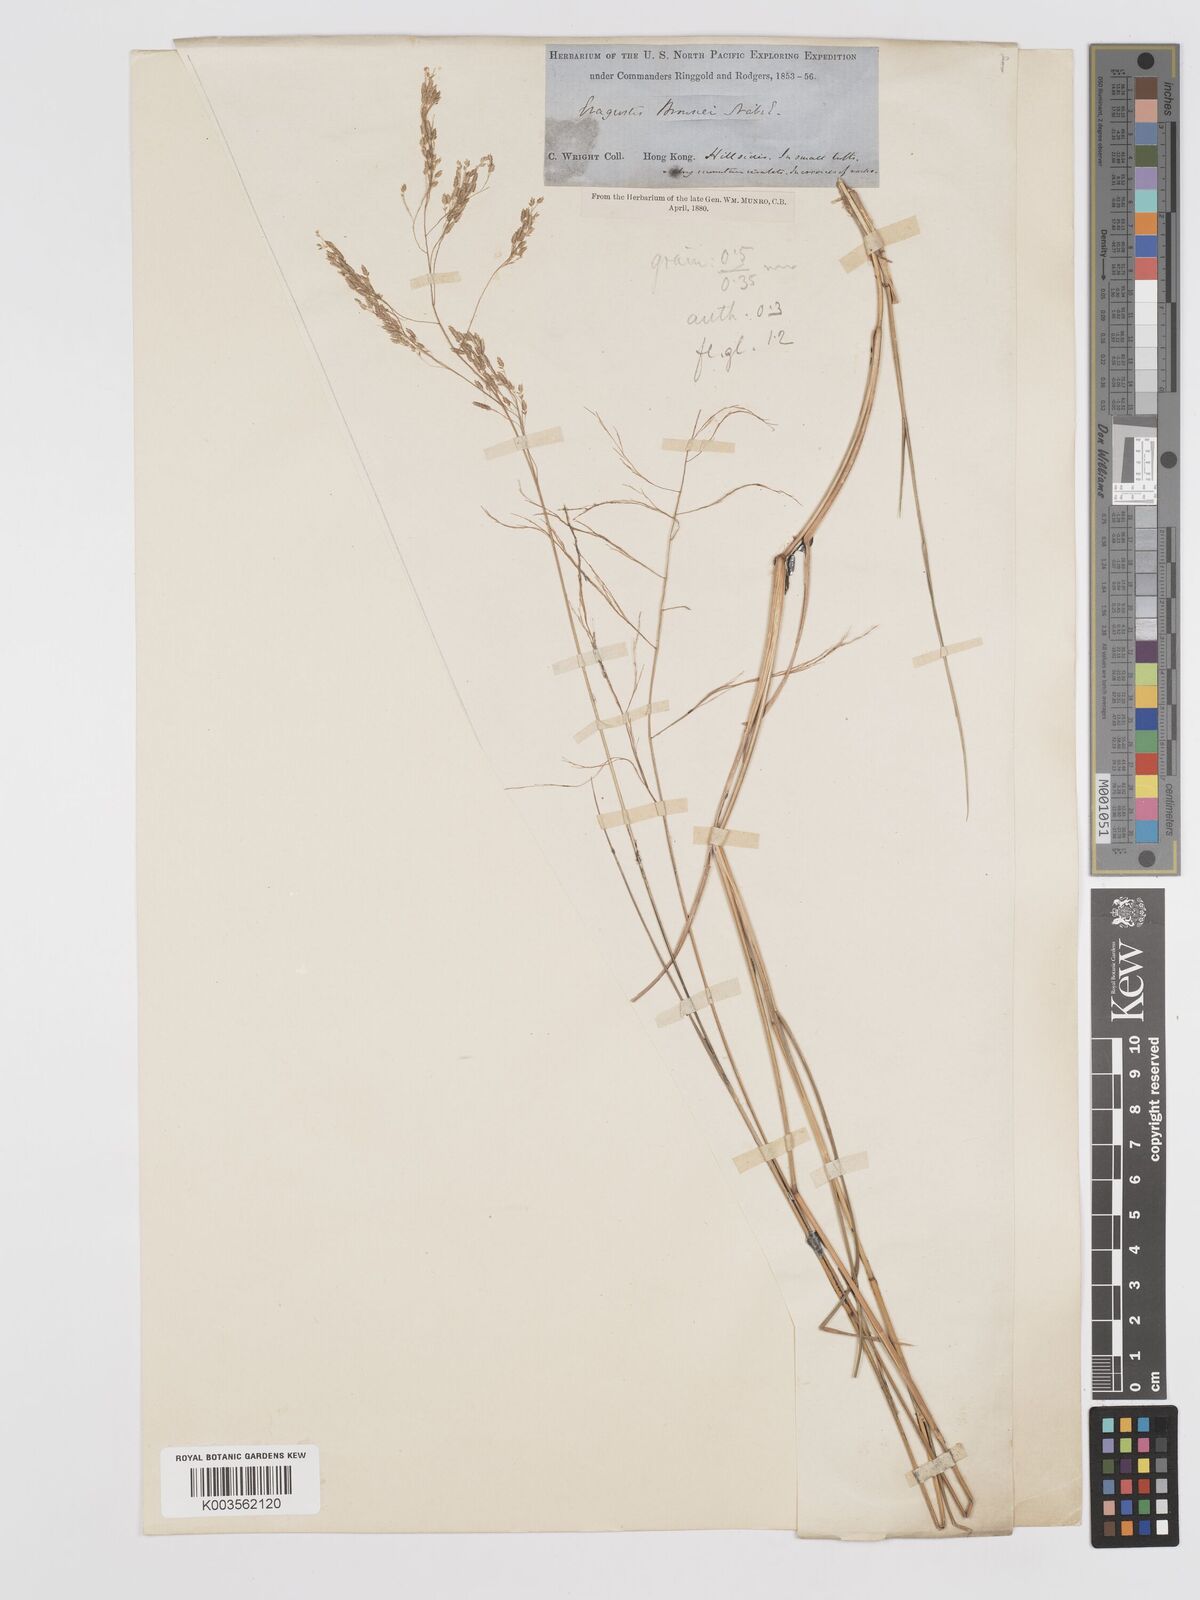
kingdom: Plantae
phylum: Tracheophyta
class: Liliopsida
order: Poales
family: Poaceae
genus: Eragrostis
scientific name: Eragrostis gangetica
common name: Slimflower lovegrass
